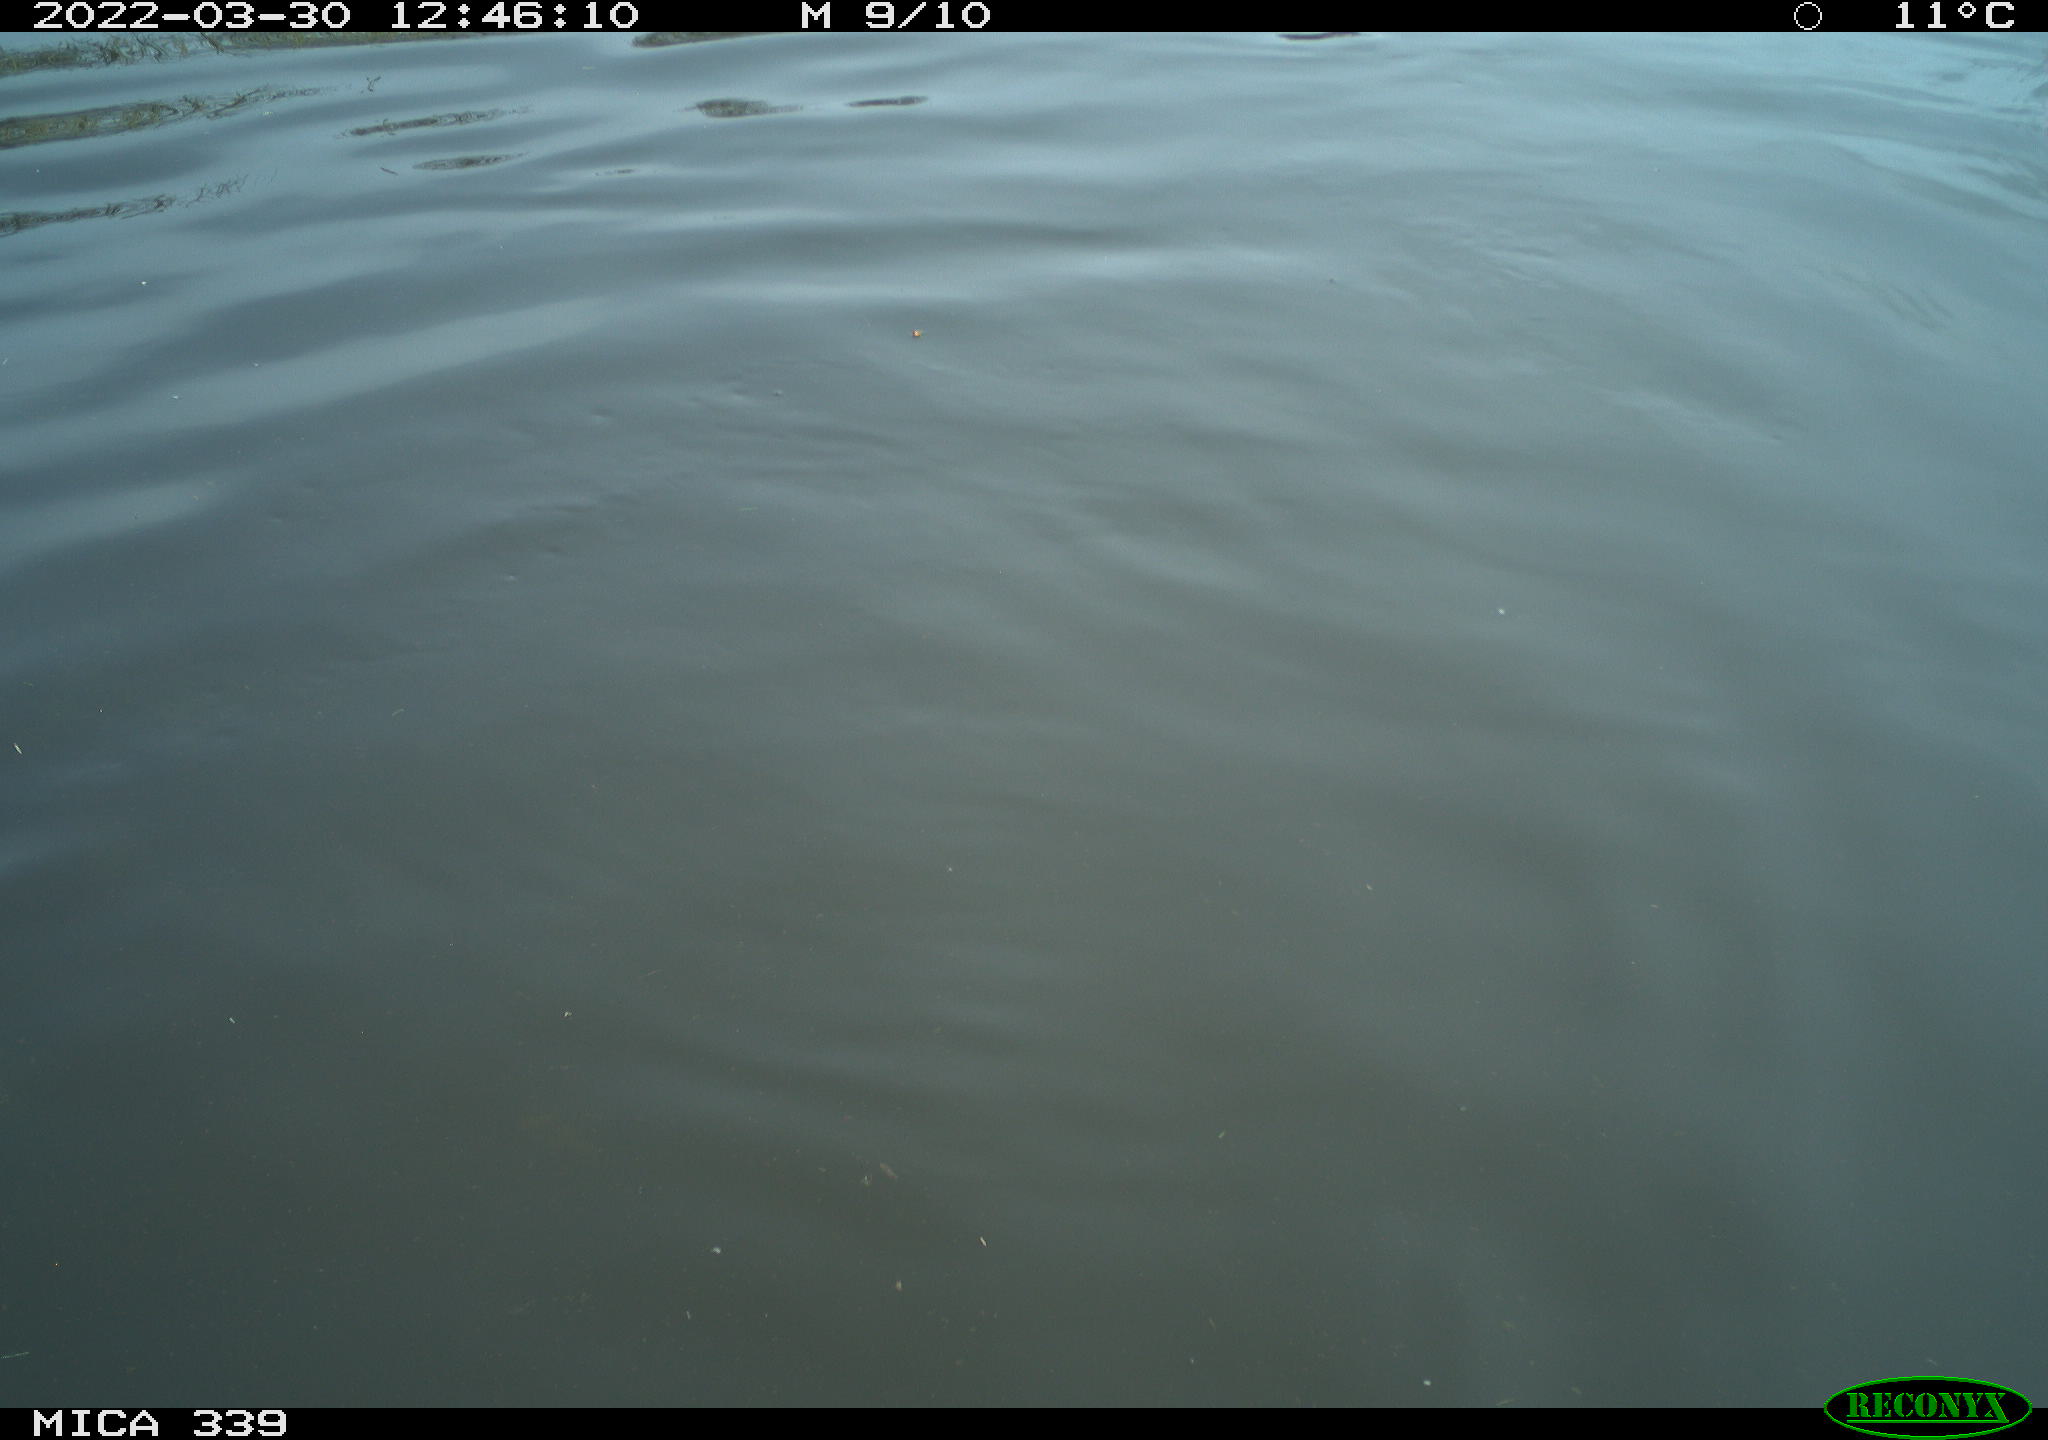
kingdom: Animalia
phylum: Chordata
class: Aves
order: Suliformes
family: Phalacrocoracidae
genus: Phalacrocorax
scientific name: Phalacrocorax carbo
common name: Great cormorant
